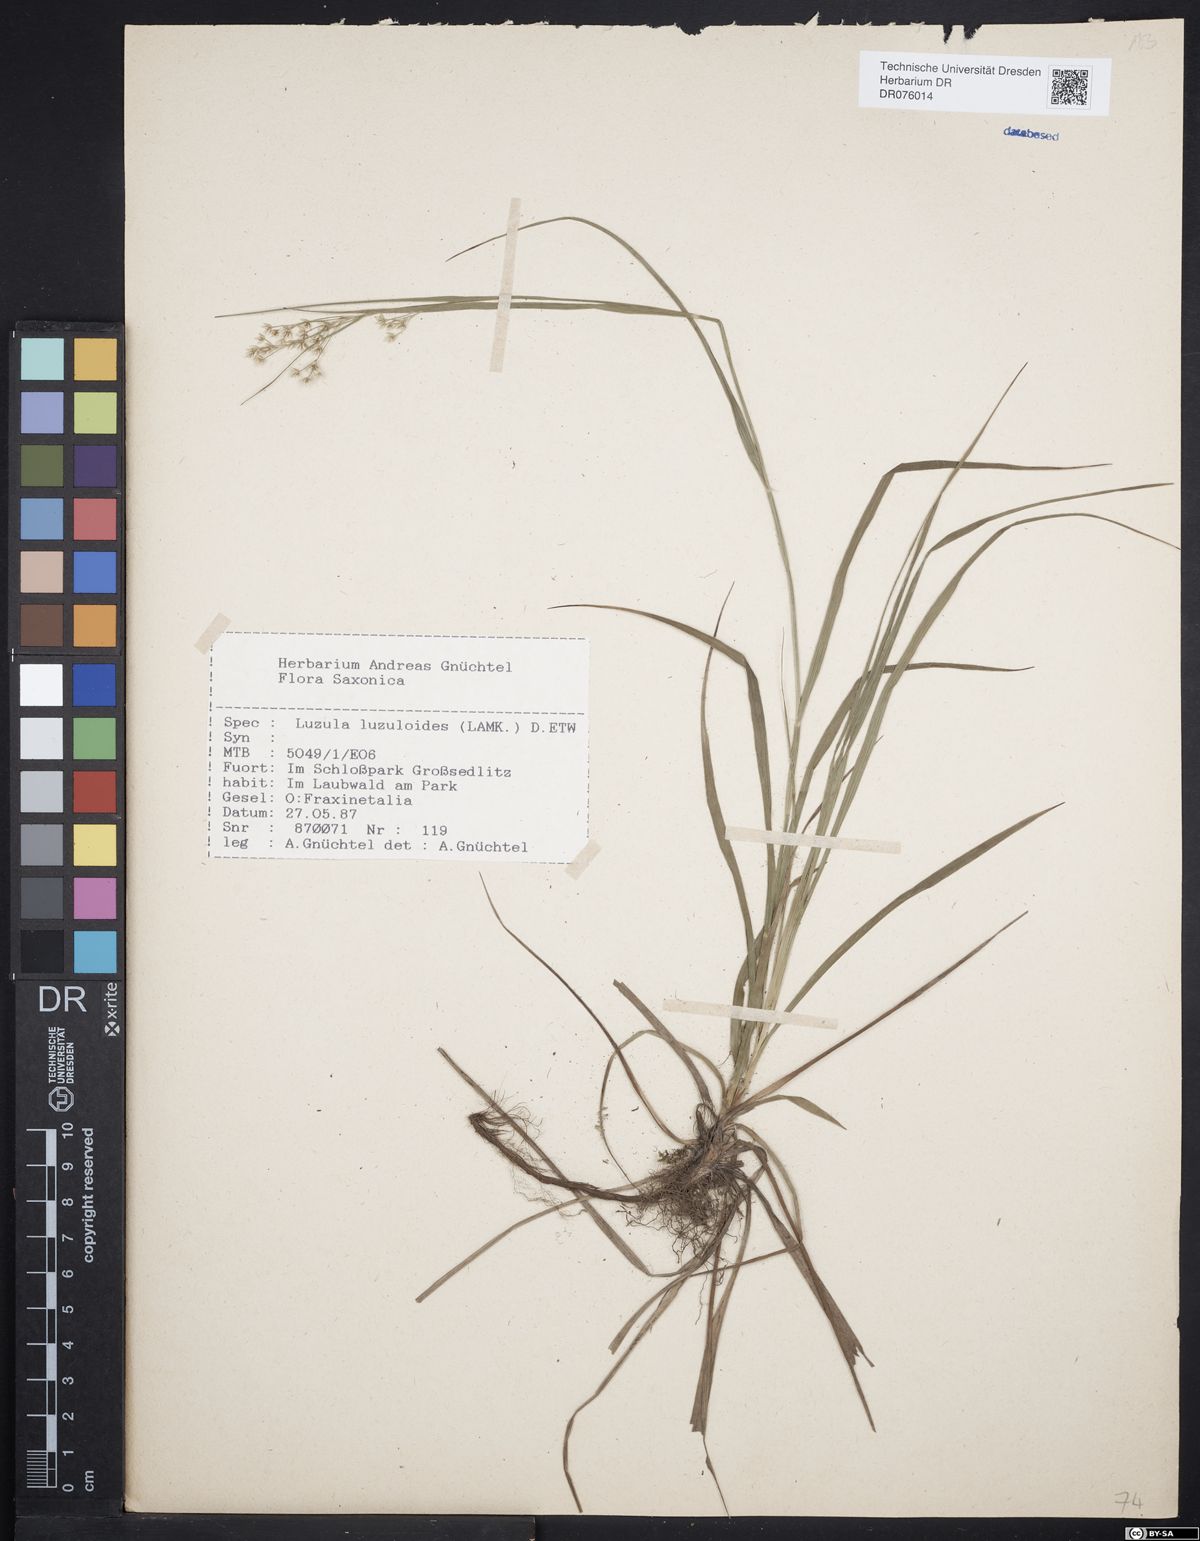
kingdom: Plantae
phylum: Tracheophyta
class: Liliopsida
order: Poales
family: Juncaceae
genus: Luzula
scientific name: Luzula luzuloides
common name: White wood-rush
